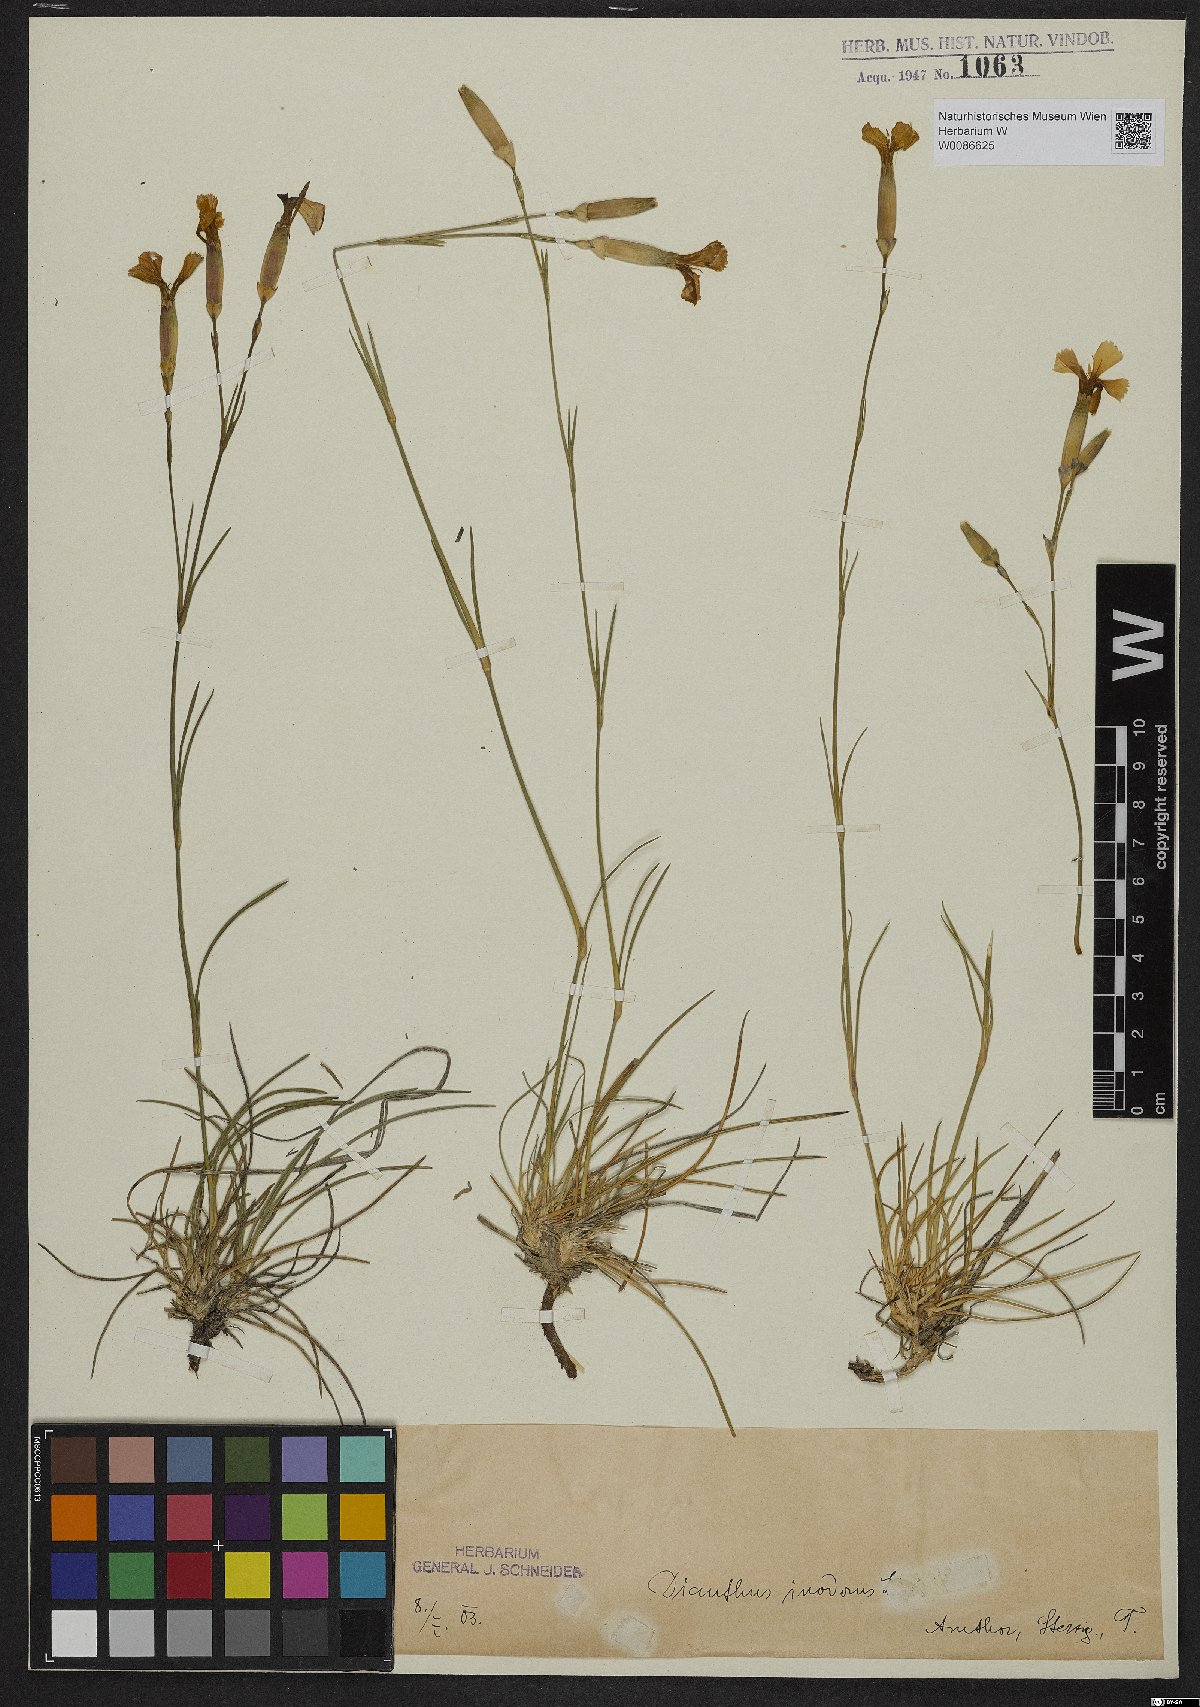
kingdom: Plantae
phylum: Tracheophyta
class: Magnoliopsida
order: Caryophyllales
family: Caryophyllaceae
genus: Dianthus
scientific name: Dianthus sylvestris
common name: Wood pink
